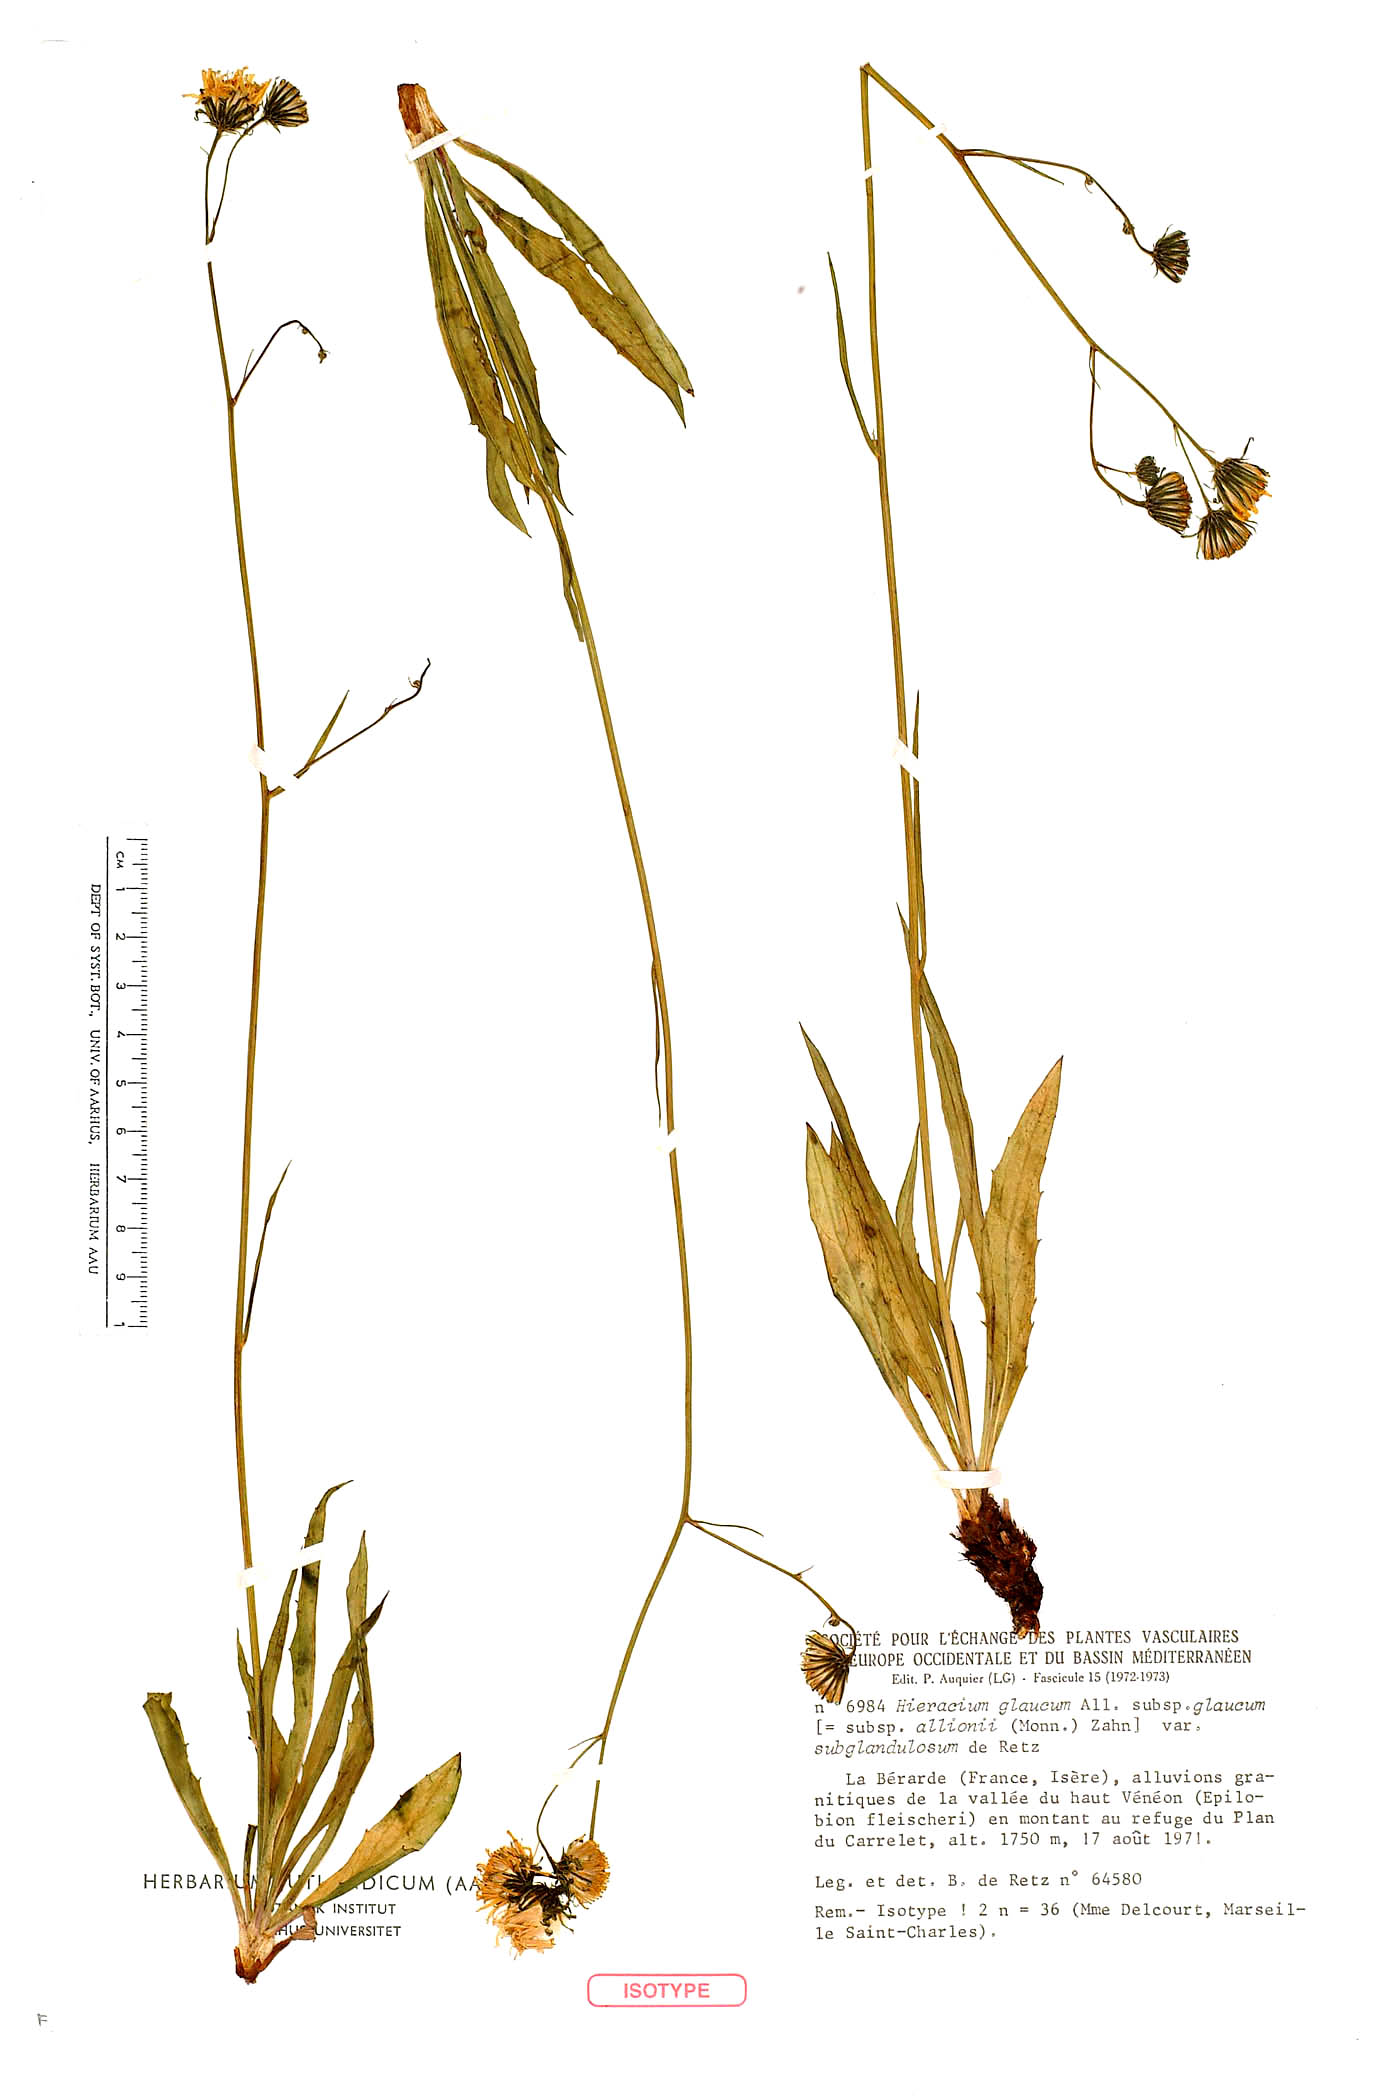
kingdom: Plantae
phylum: Tracheophyta
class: Magnoliopsida
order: Asterales
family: Asteraceae
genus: Hieracium
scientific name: Hieracium glaucum
